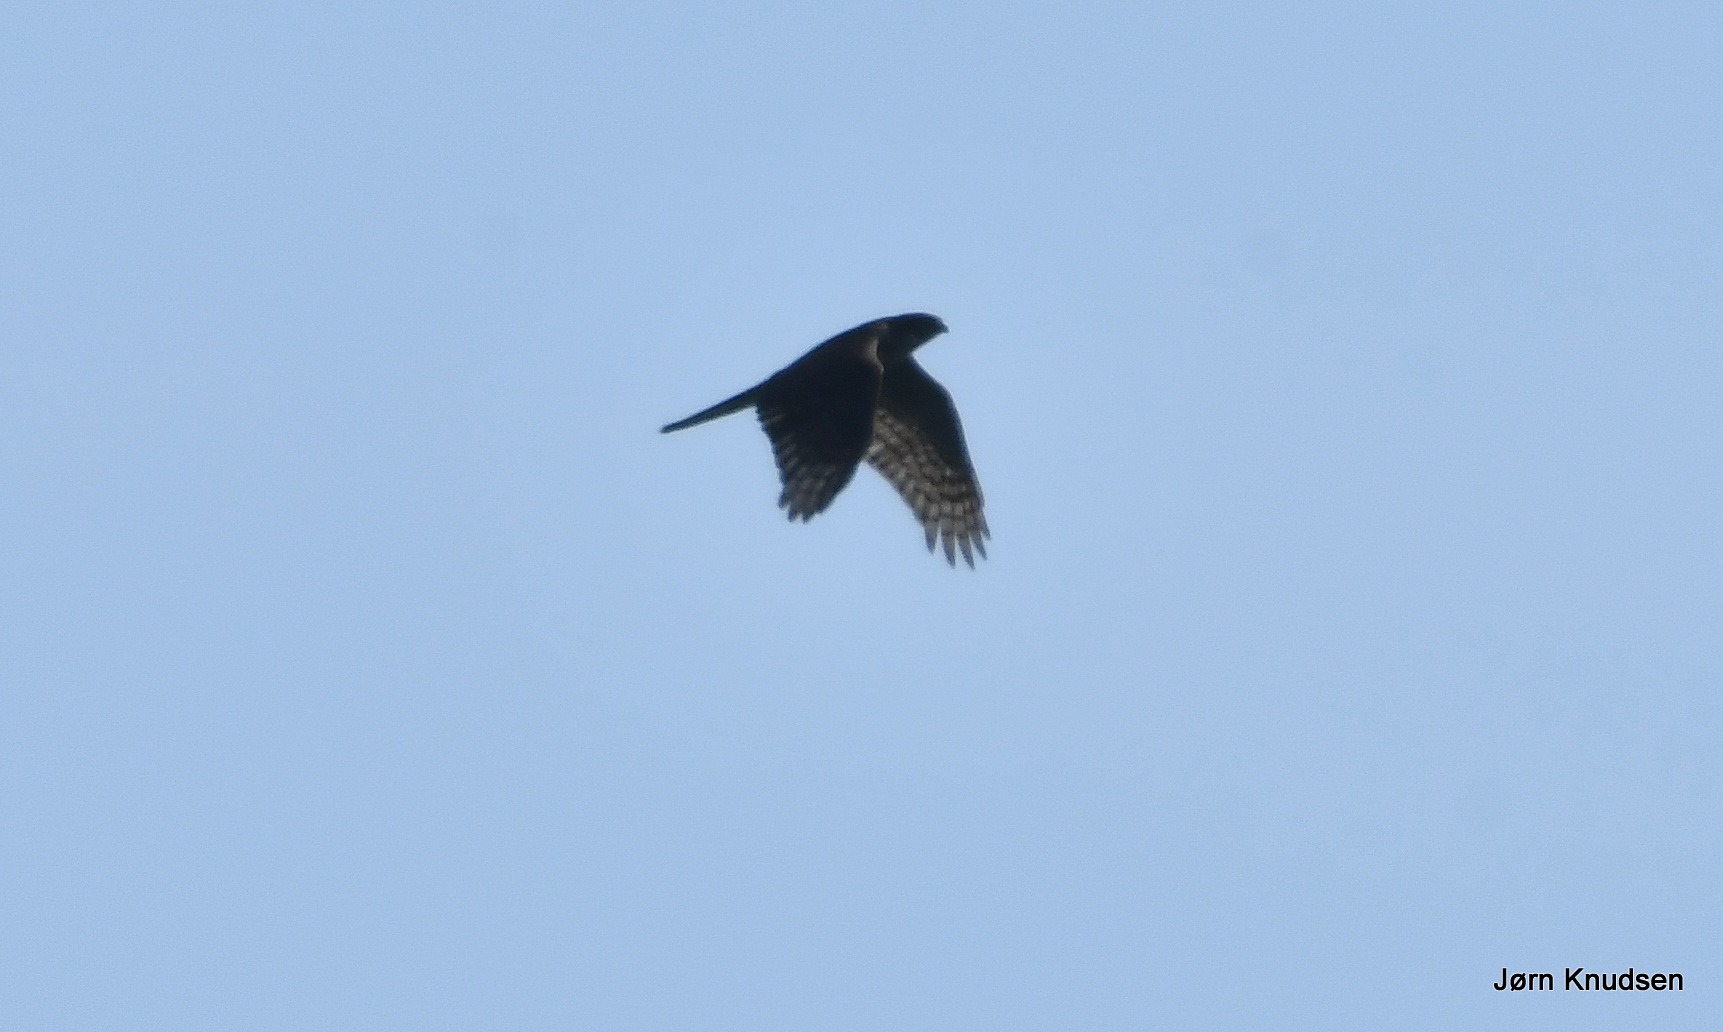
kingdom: Animalia
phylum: Chordata
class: Aves
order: Accipitriformes
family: Accipitridae
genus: Accipiter
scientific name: Accipiter nisus
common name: Spurvehøg
